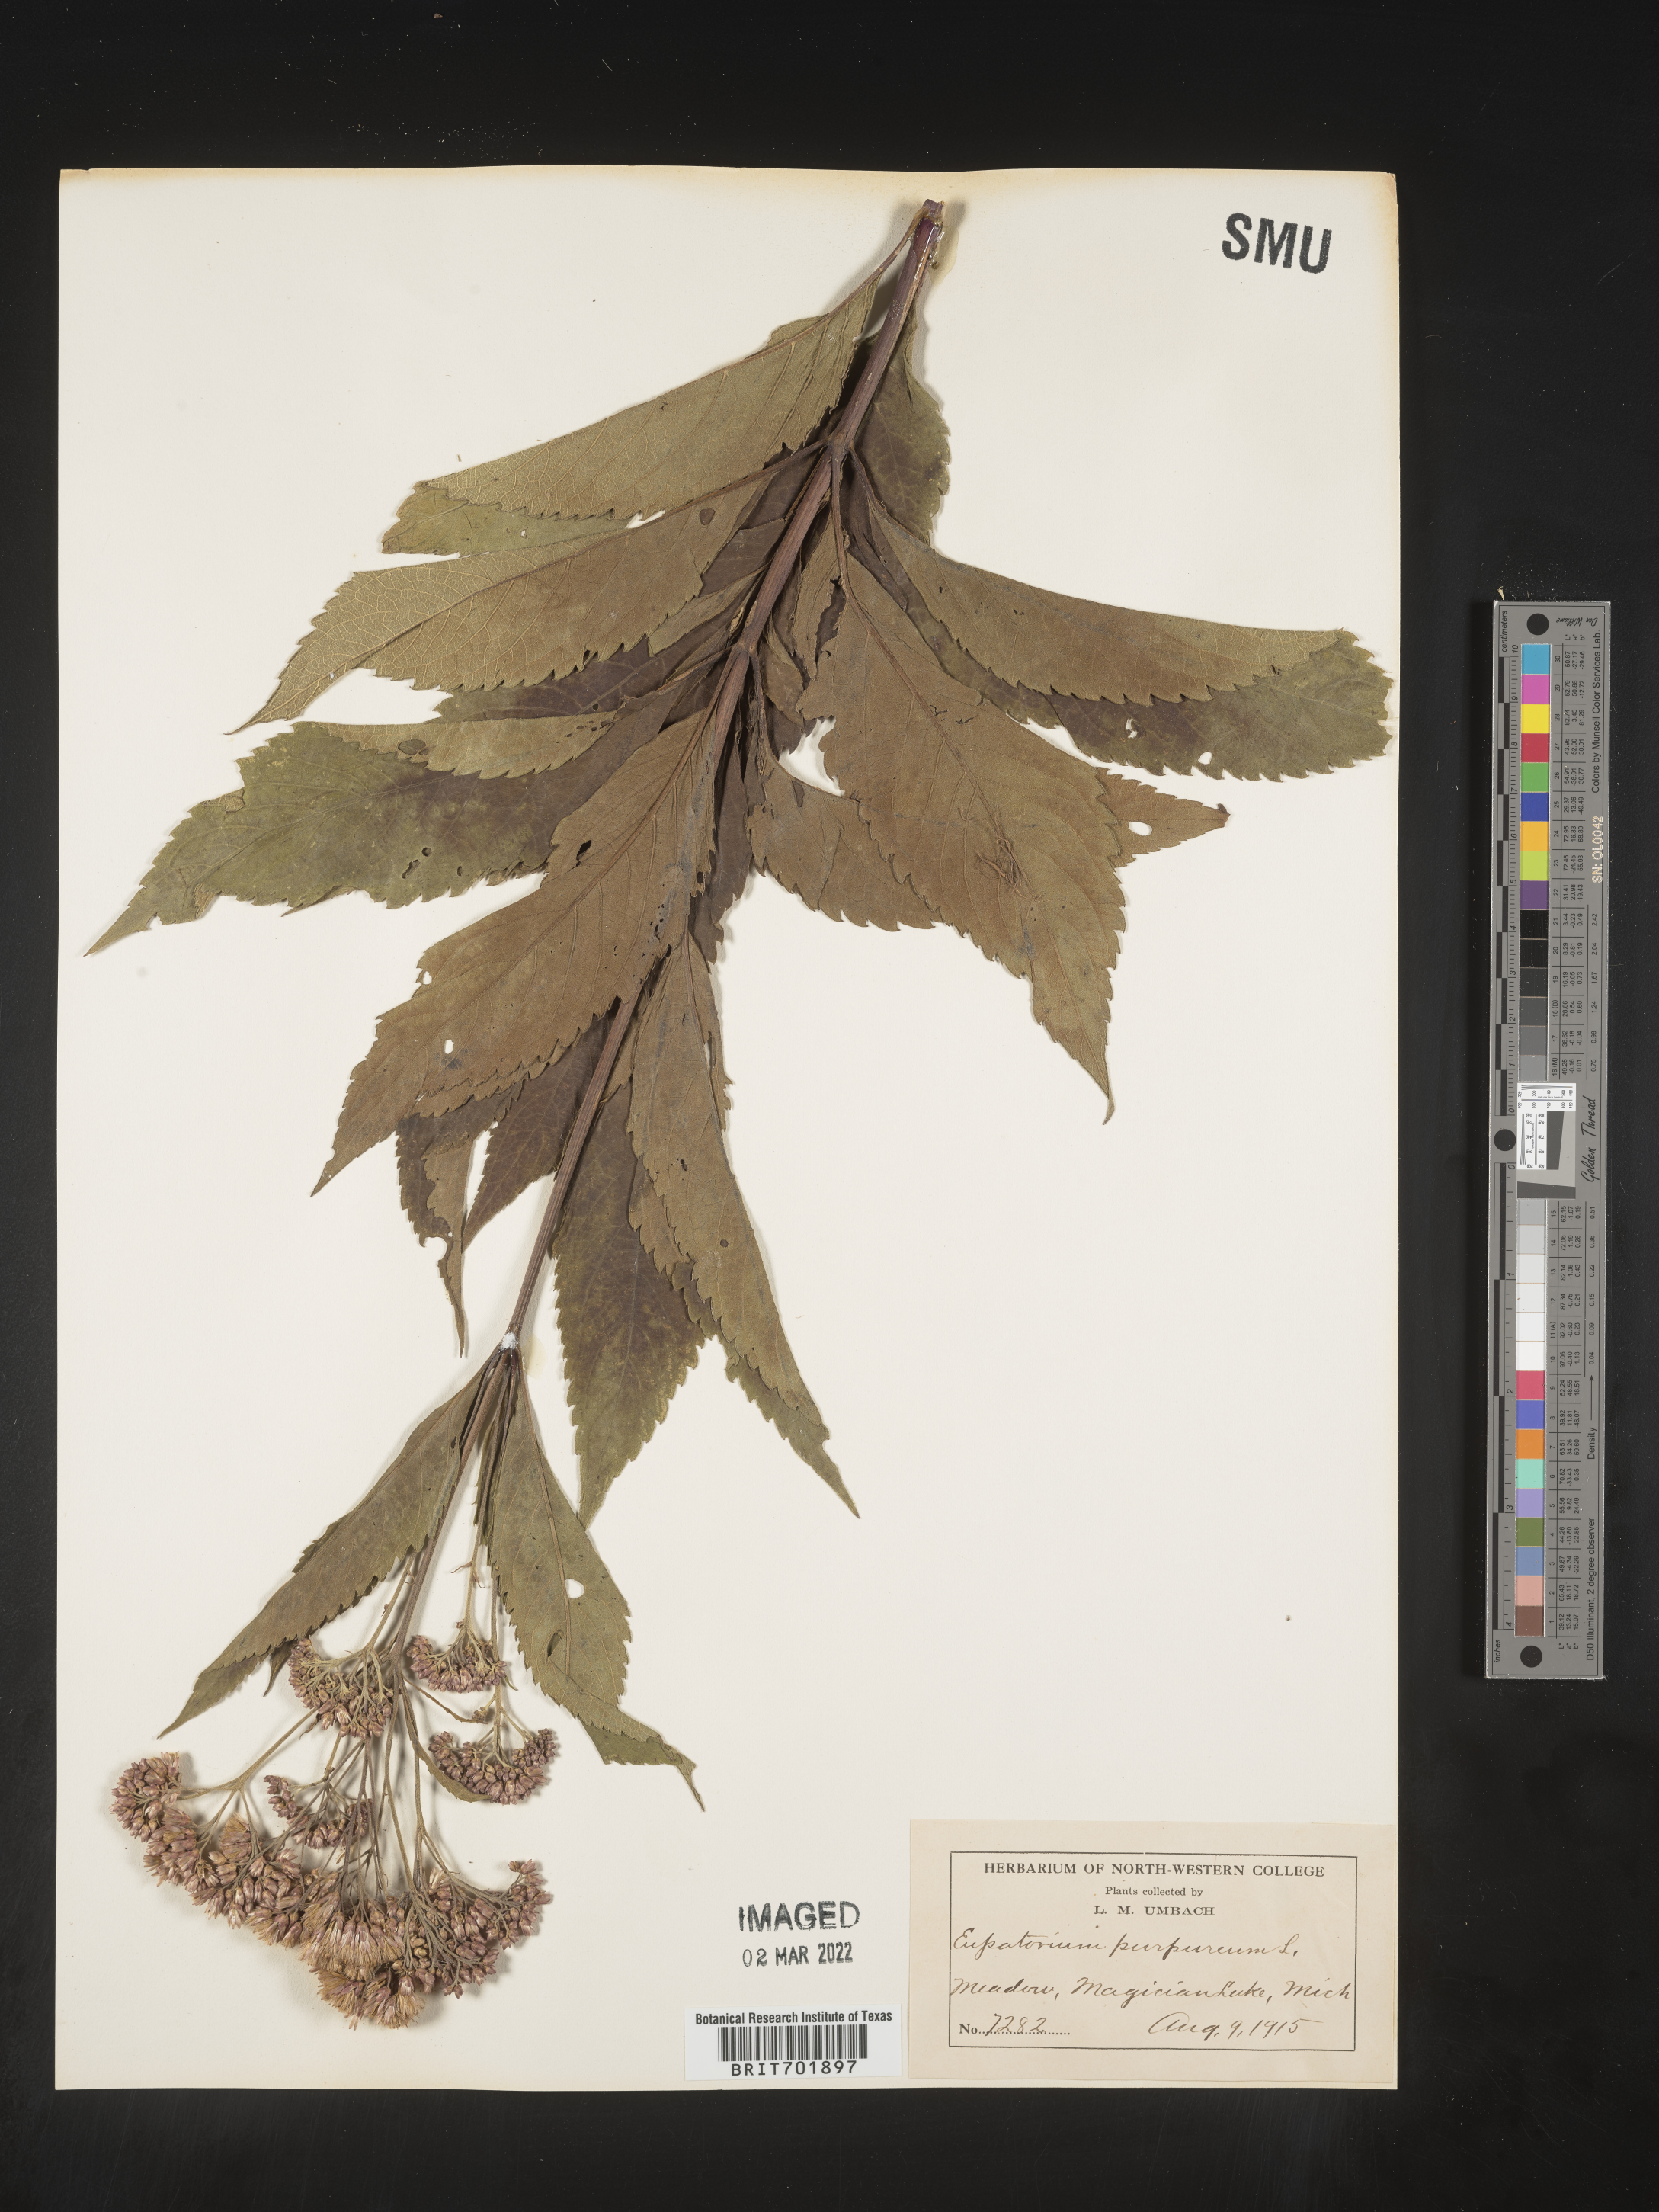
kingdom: Plantae
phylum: Tracheophyta
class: Magnoliopsida
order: Asterales
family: Asteraceae
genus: Eupatorium
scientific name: Eupatorium quaternum
